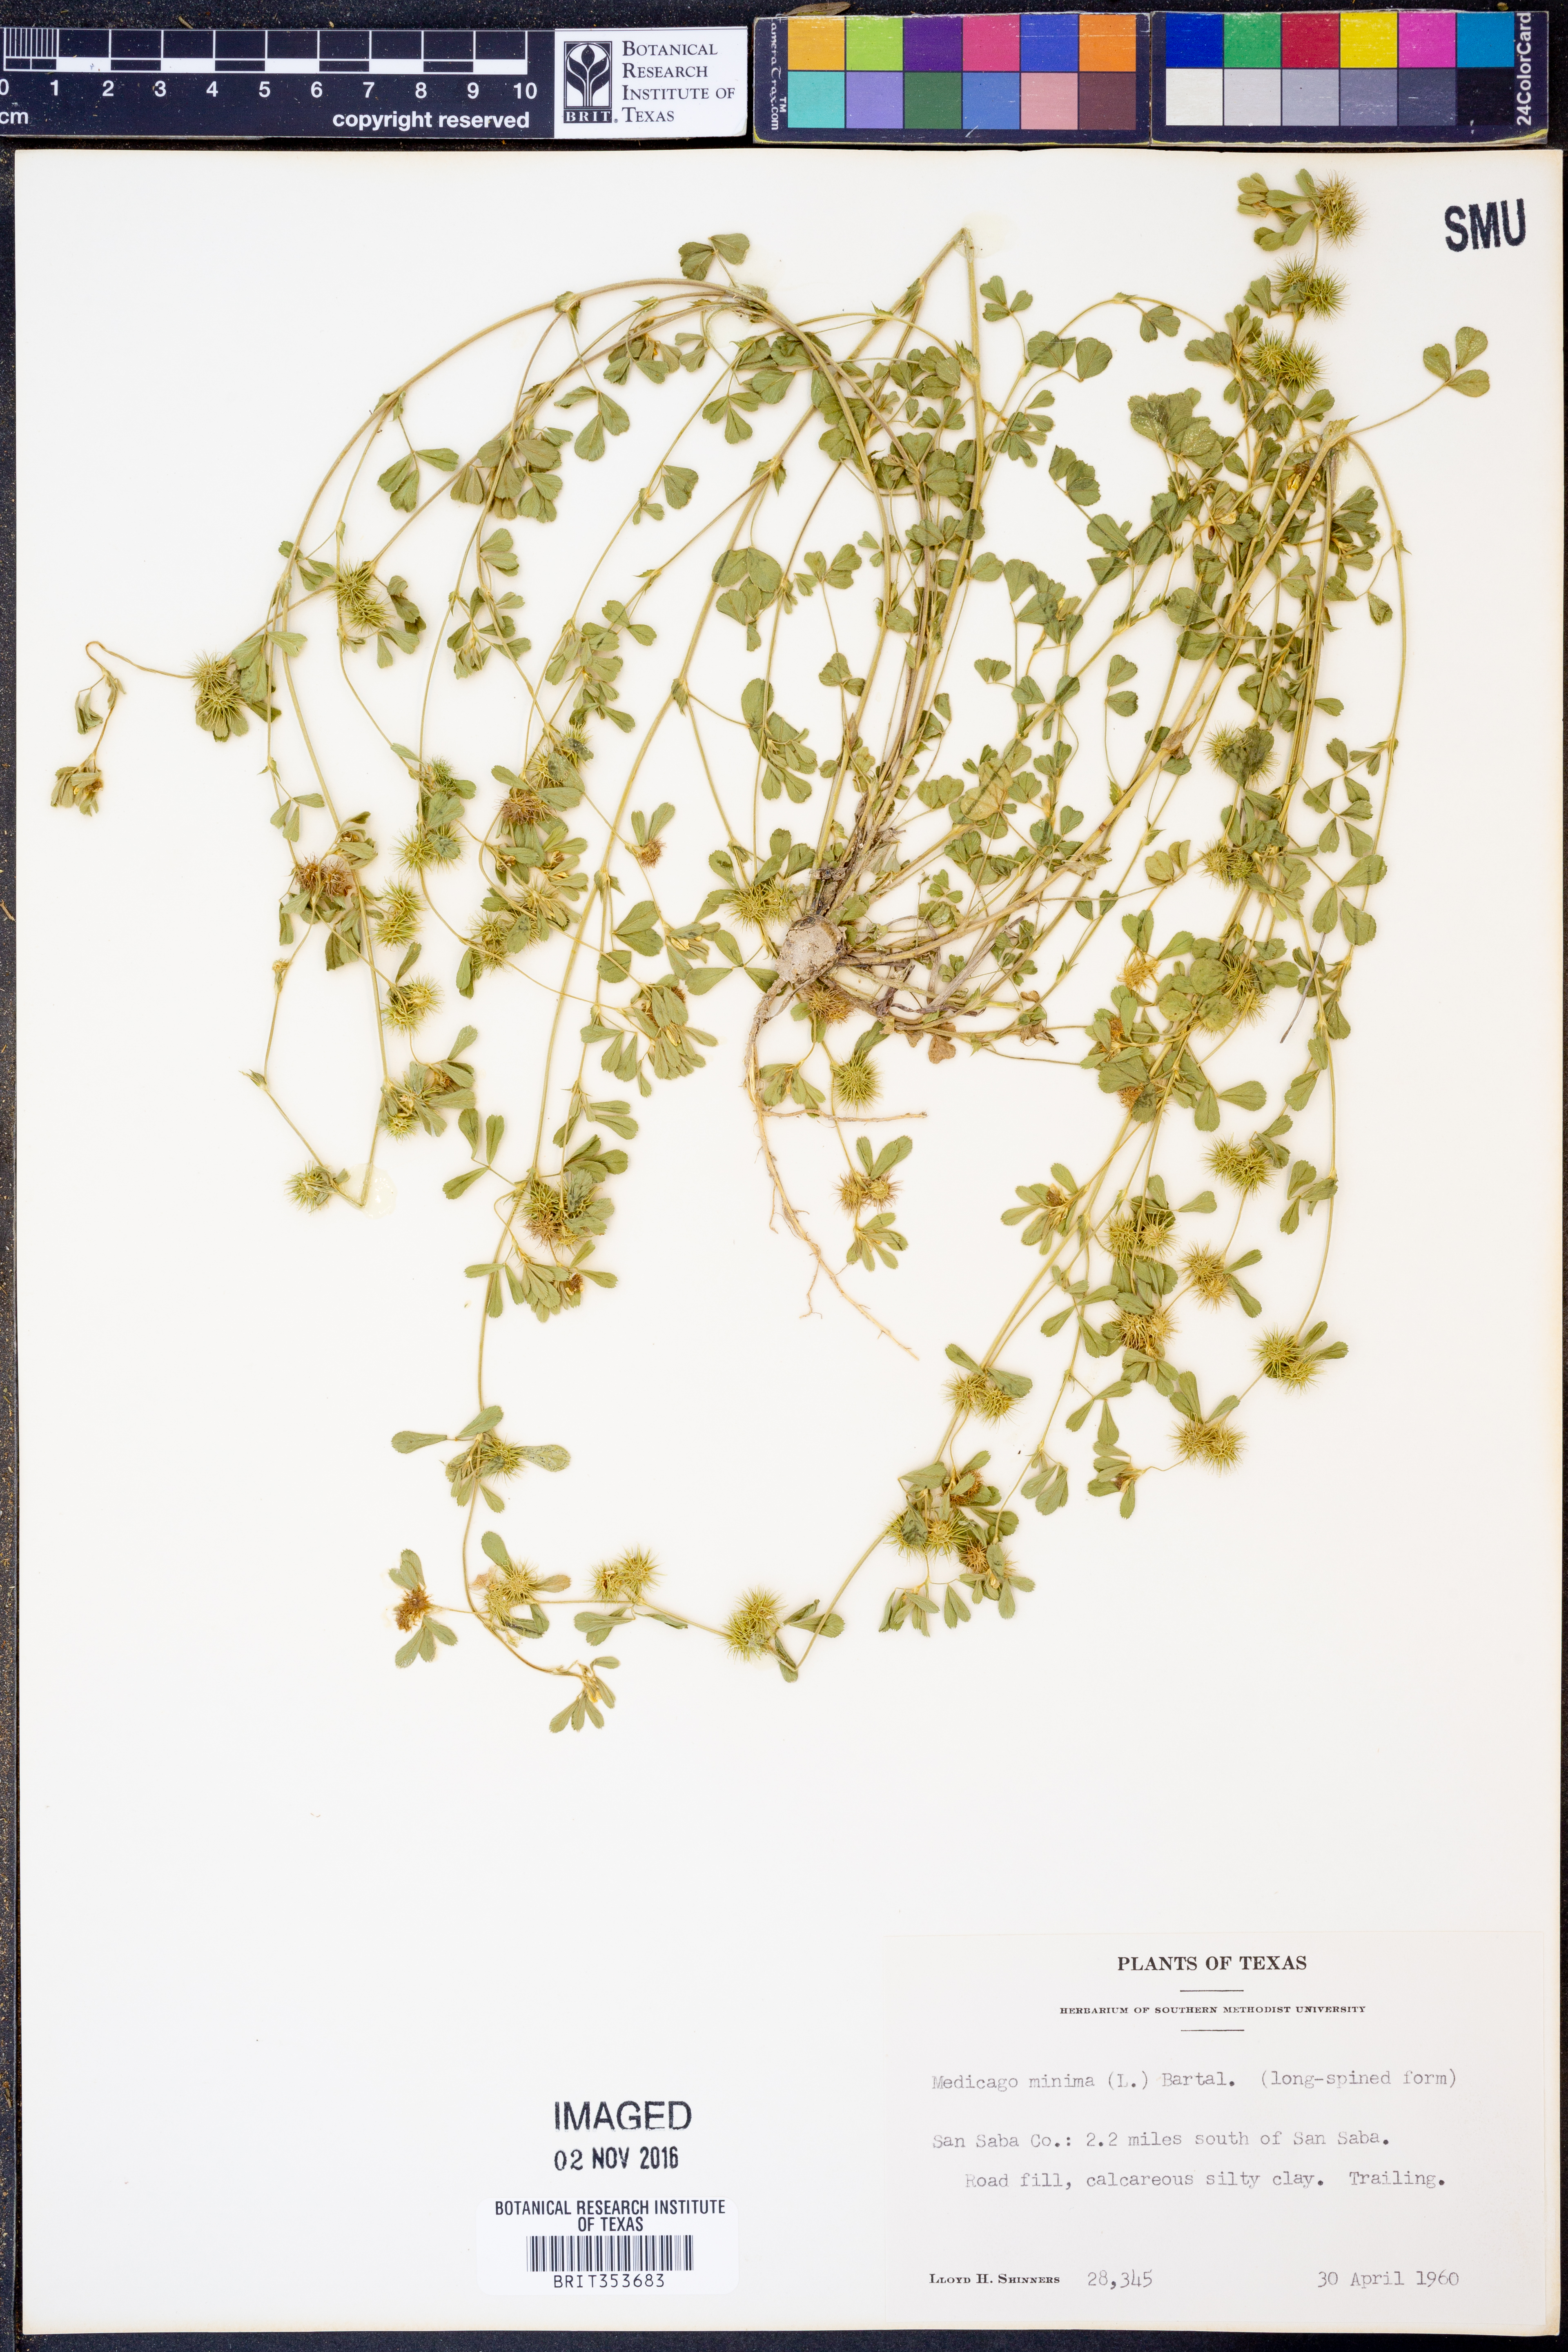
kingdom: Plantae
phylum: Tracheophyta
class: Magnoliopsida
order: Fabales
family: Fabaceae
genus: Medicago
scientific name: Medicago minima
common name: Little bur-clover
